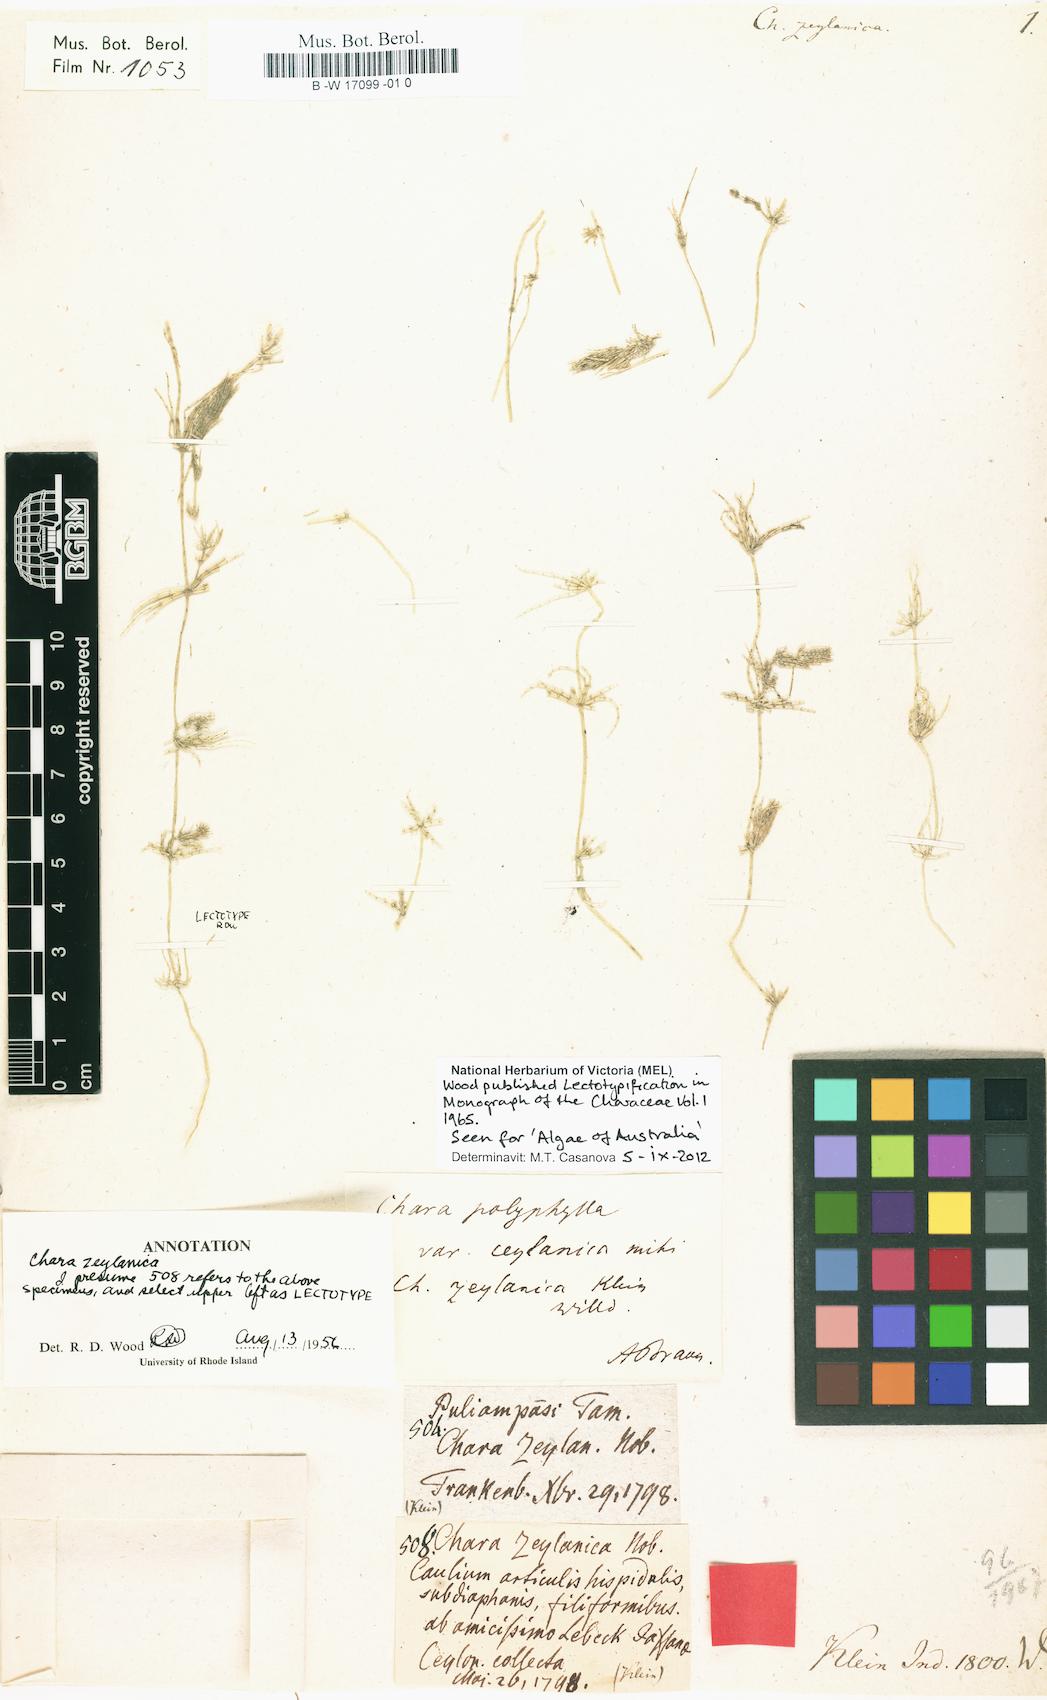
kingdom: Plantae
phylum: Charophyta
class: Charophyceae
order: Charales
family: Characeae
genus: Chara
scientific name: Chara zeylanica
